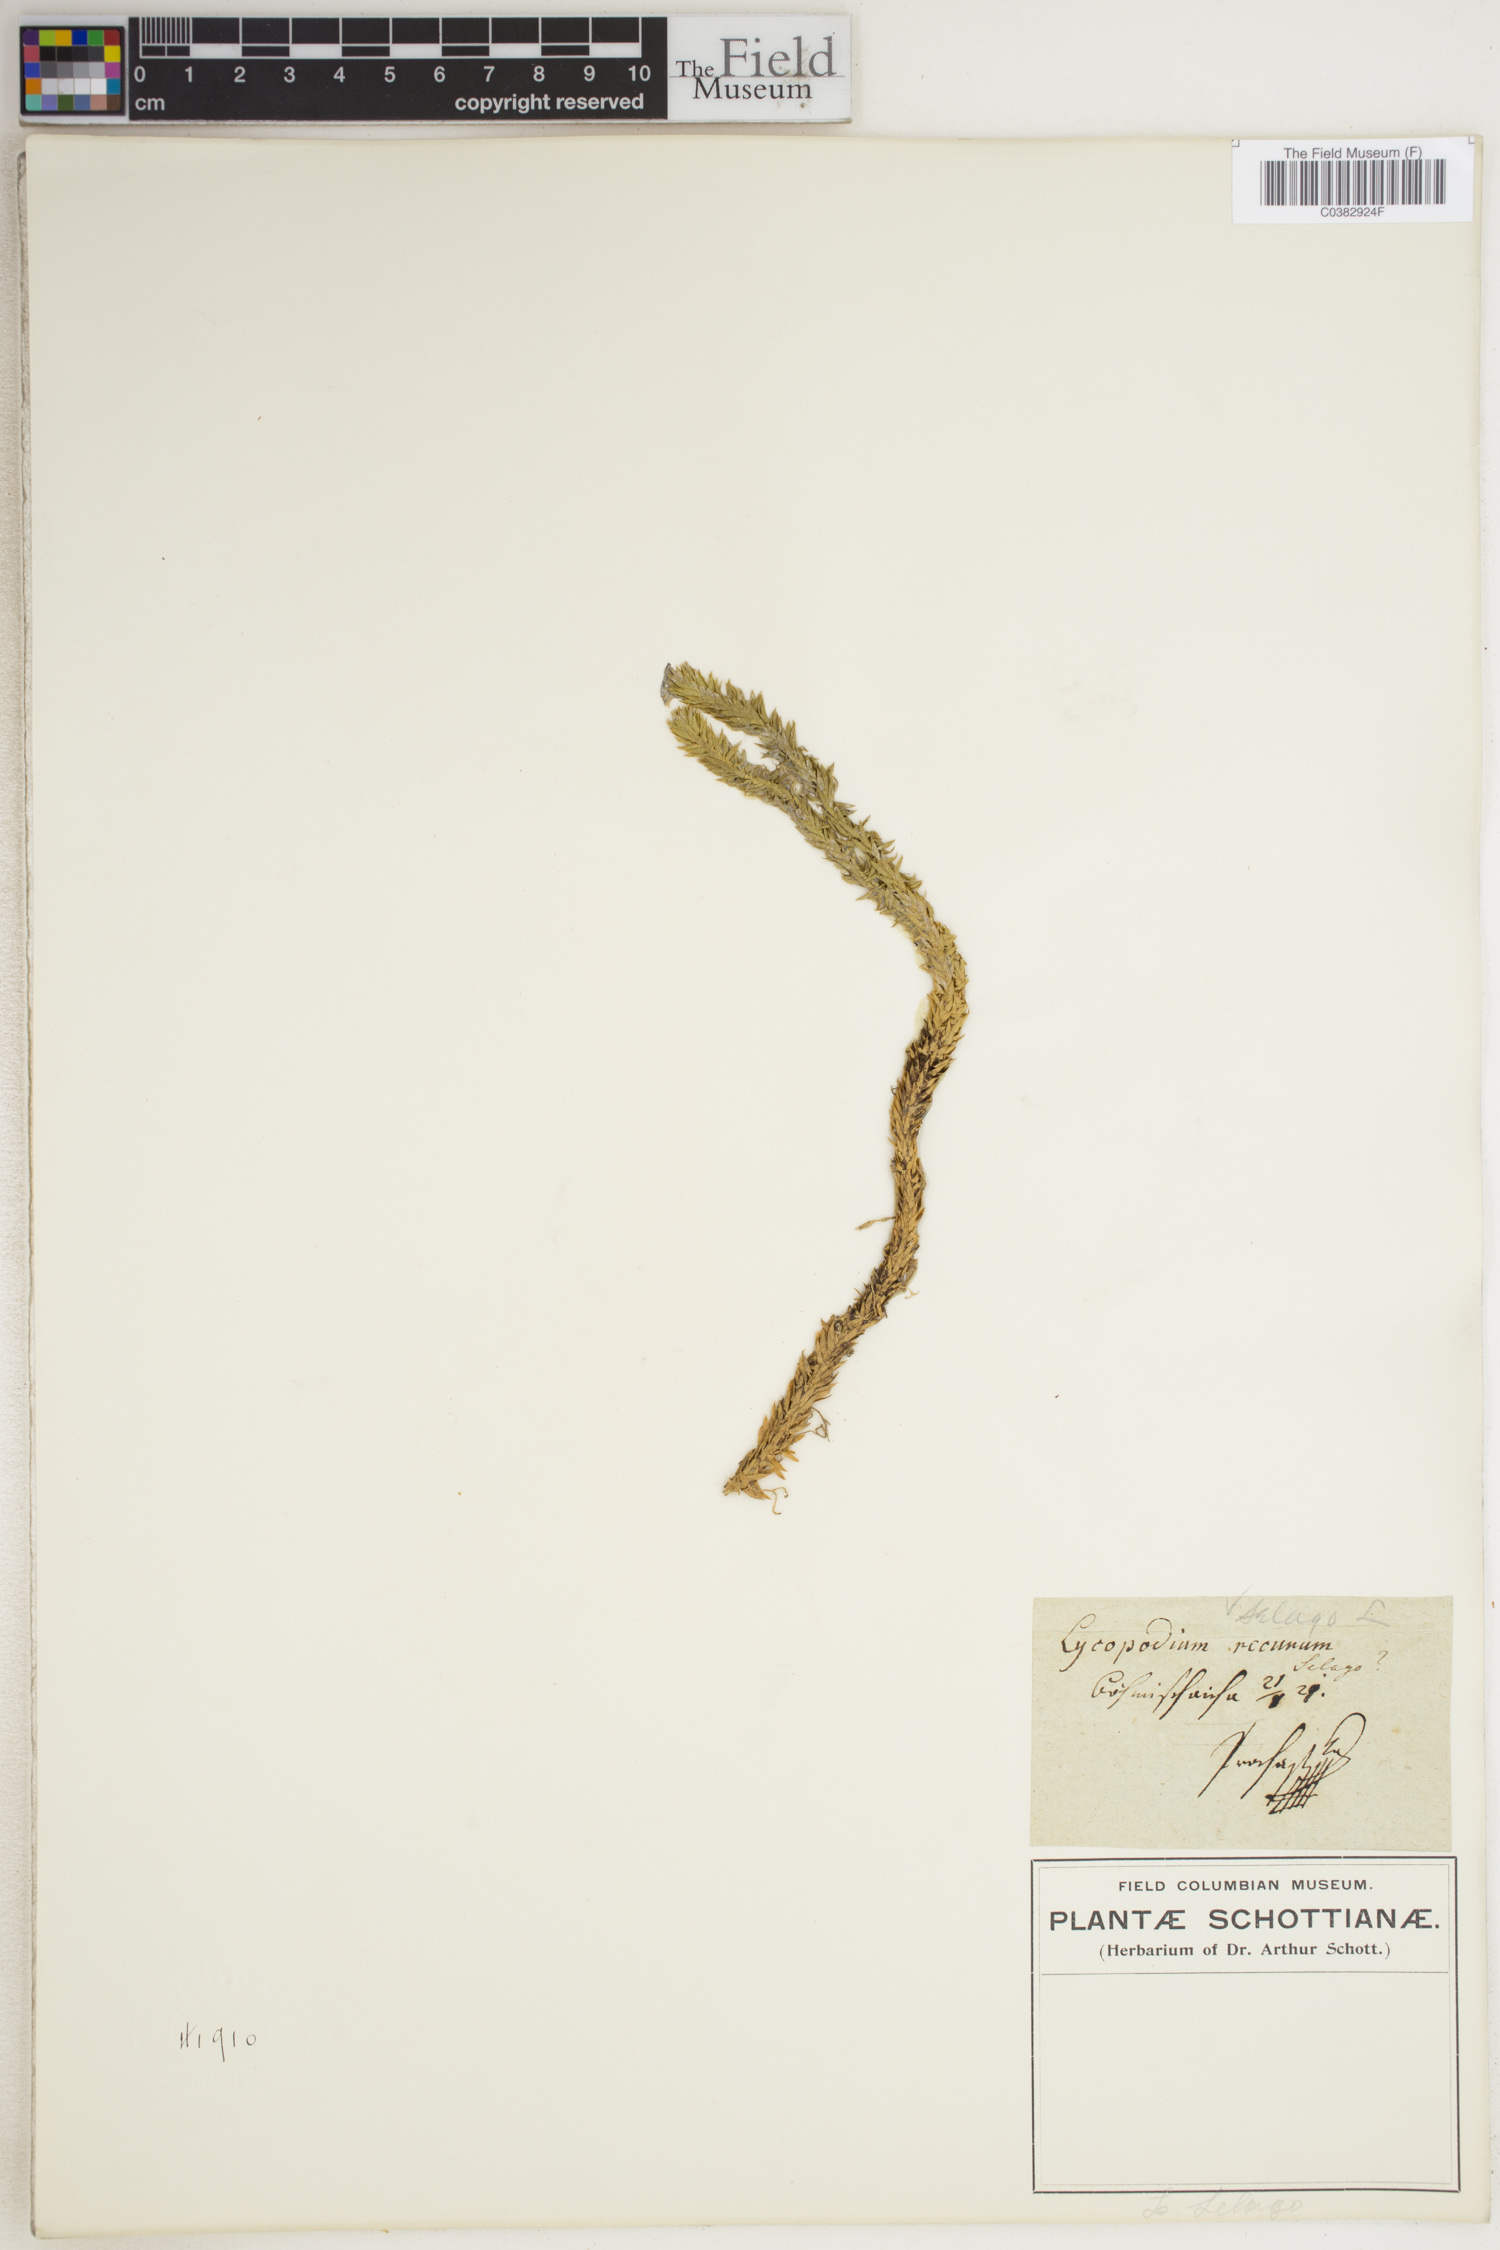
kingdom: Plantae
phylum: Tracheophyta
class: Lycopodiopsida
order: Lycopodiales
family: Lycopodiaceae
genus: Huperzia
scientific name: Huperzia selago
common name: Northern firmoss
